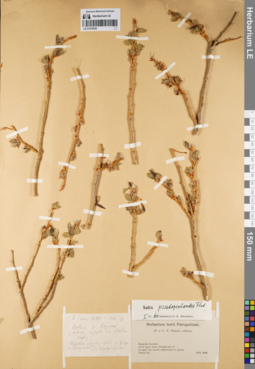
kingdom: Plantae
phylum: Tracheophyta
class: Magnoliopsida
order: Malpighiales
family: Salicaceae
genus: Salix
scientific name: Salix pseudopentandra
